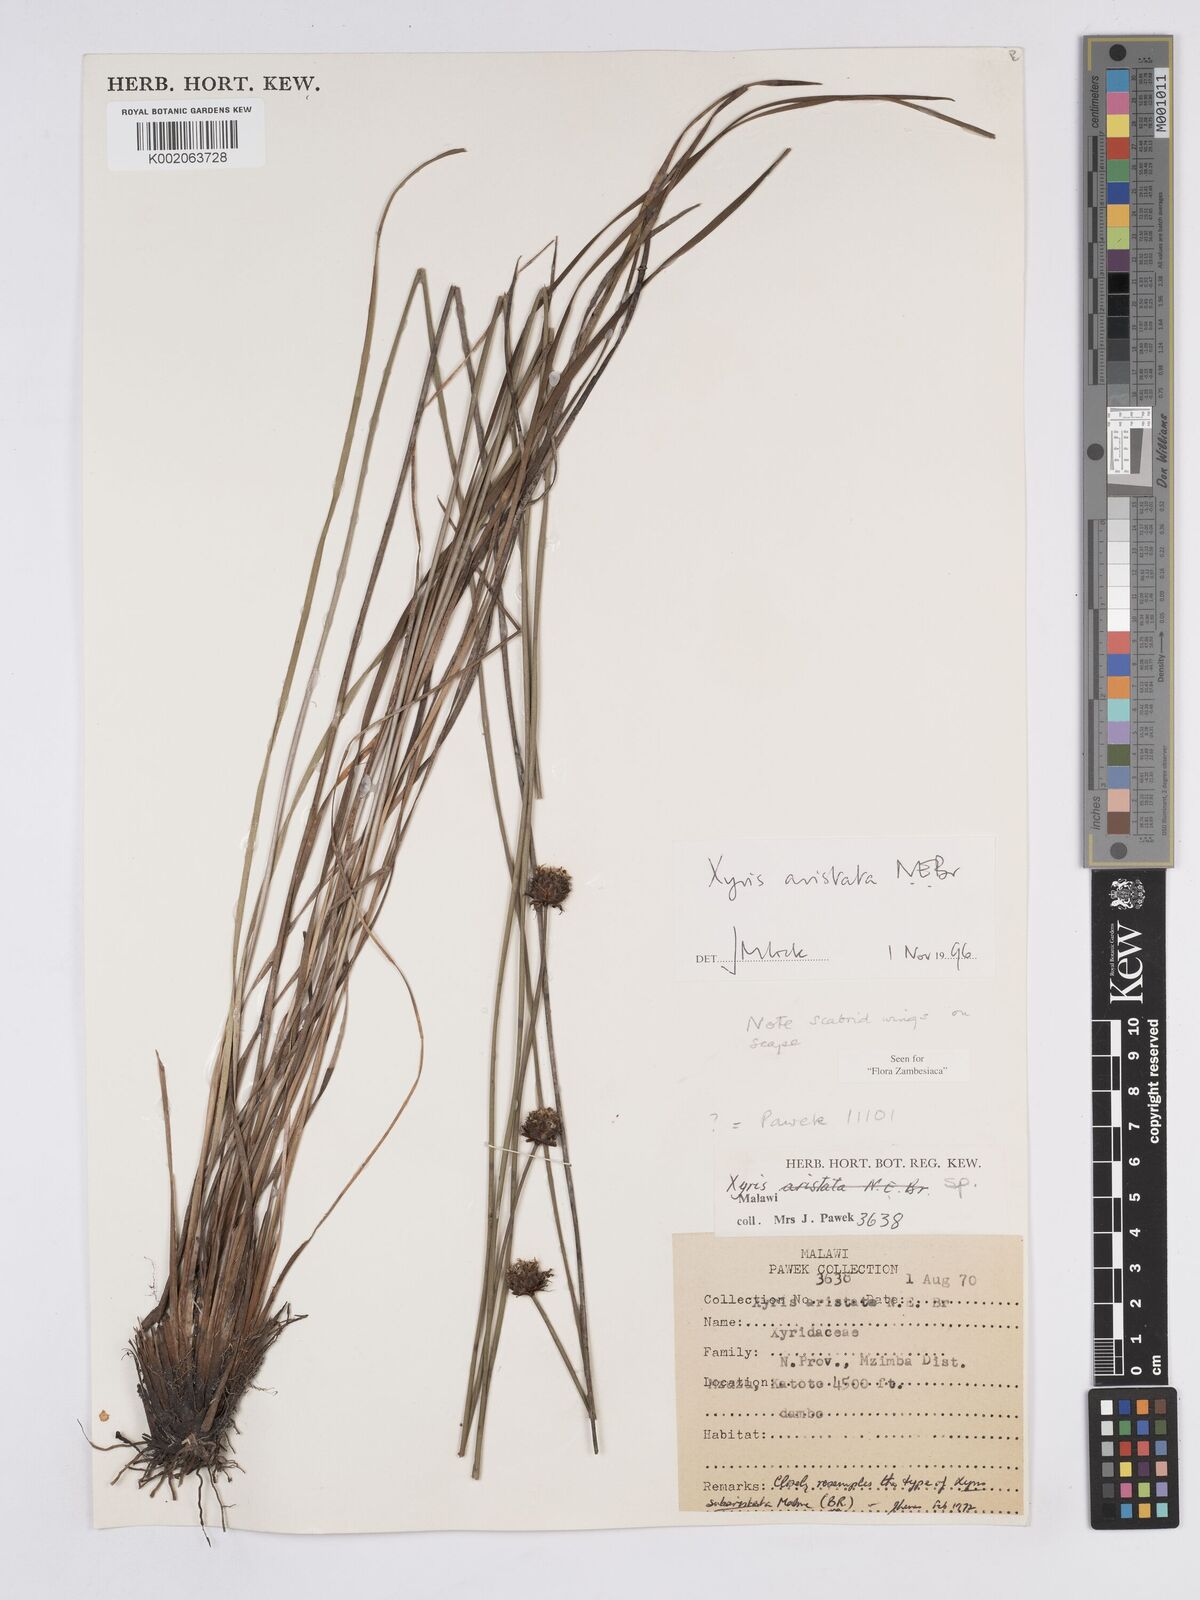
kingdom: Plantae
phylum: Tracheophyta
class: Liliopsida
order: Poales
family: Xyridaceae
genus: Xyris
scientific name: Xyris aristata
